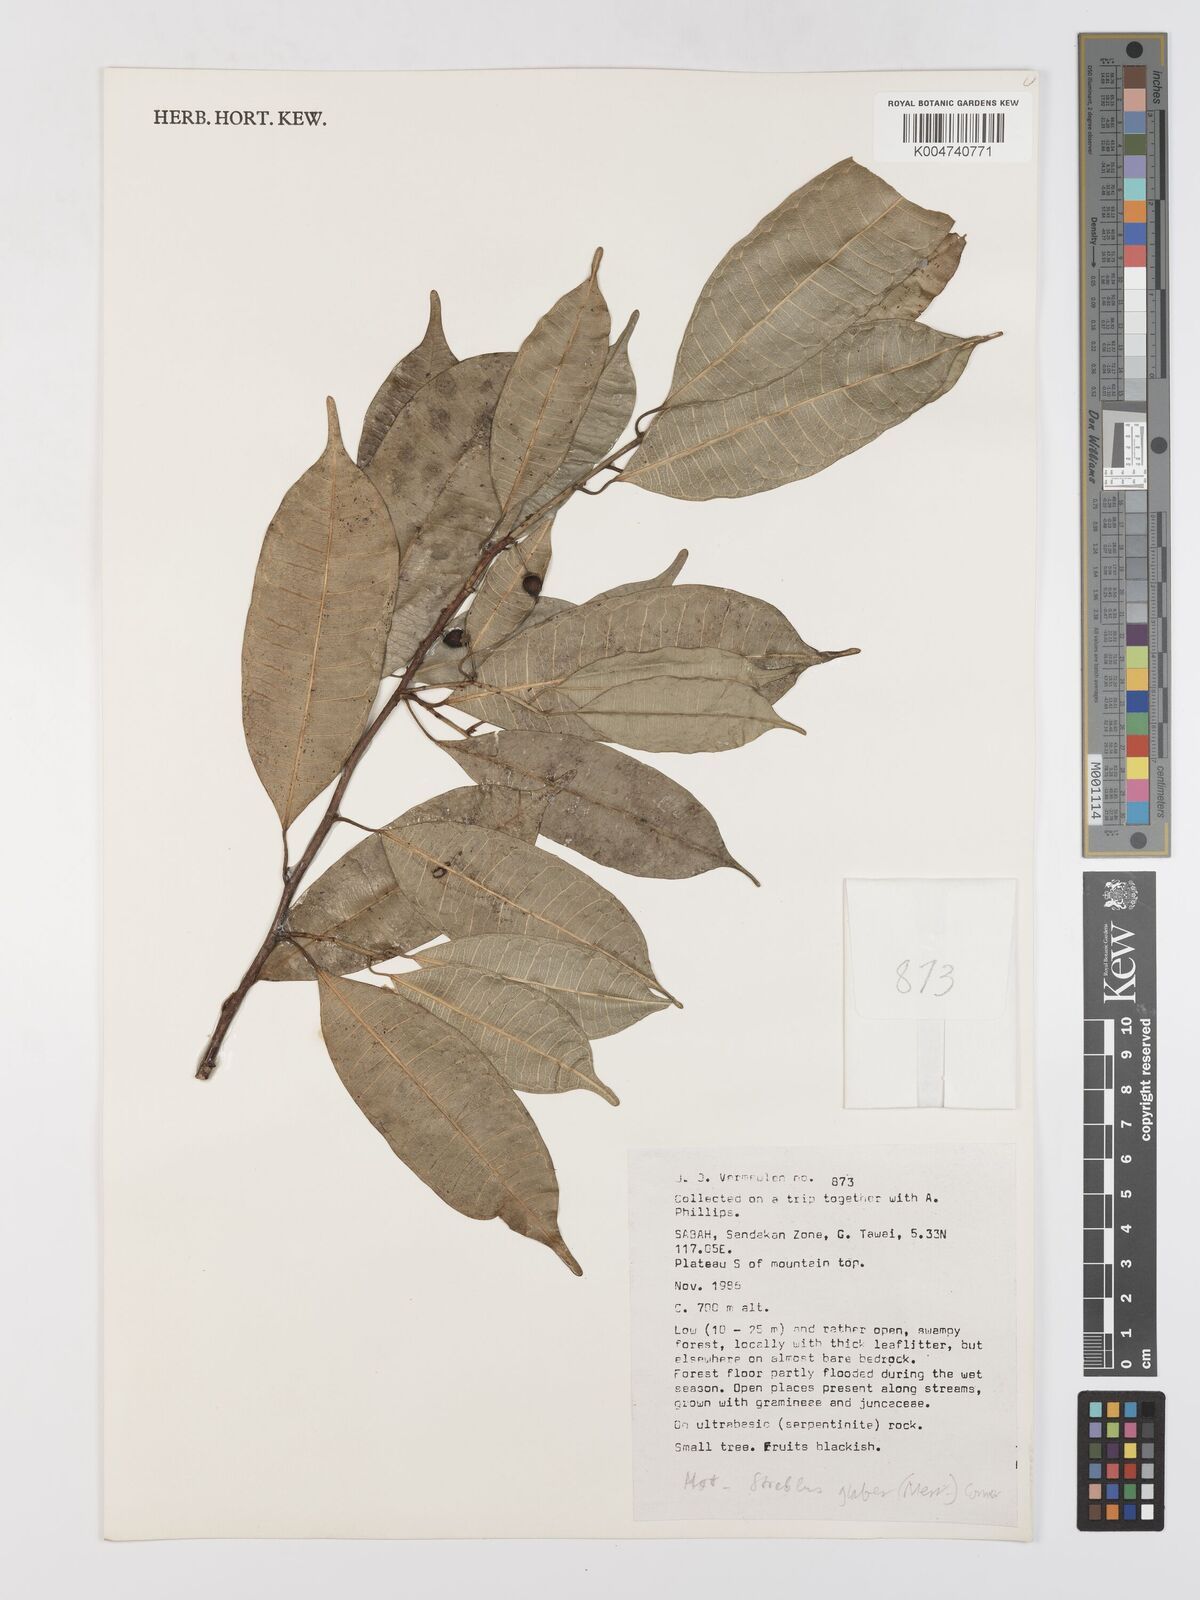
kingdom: Plantae
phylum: Tracheophyta
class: Magnoliopsida
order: Rosales
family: Moraceae
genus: Paratrophis
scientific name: Paratrophis glabra
